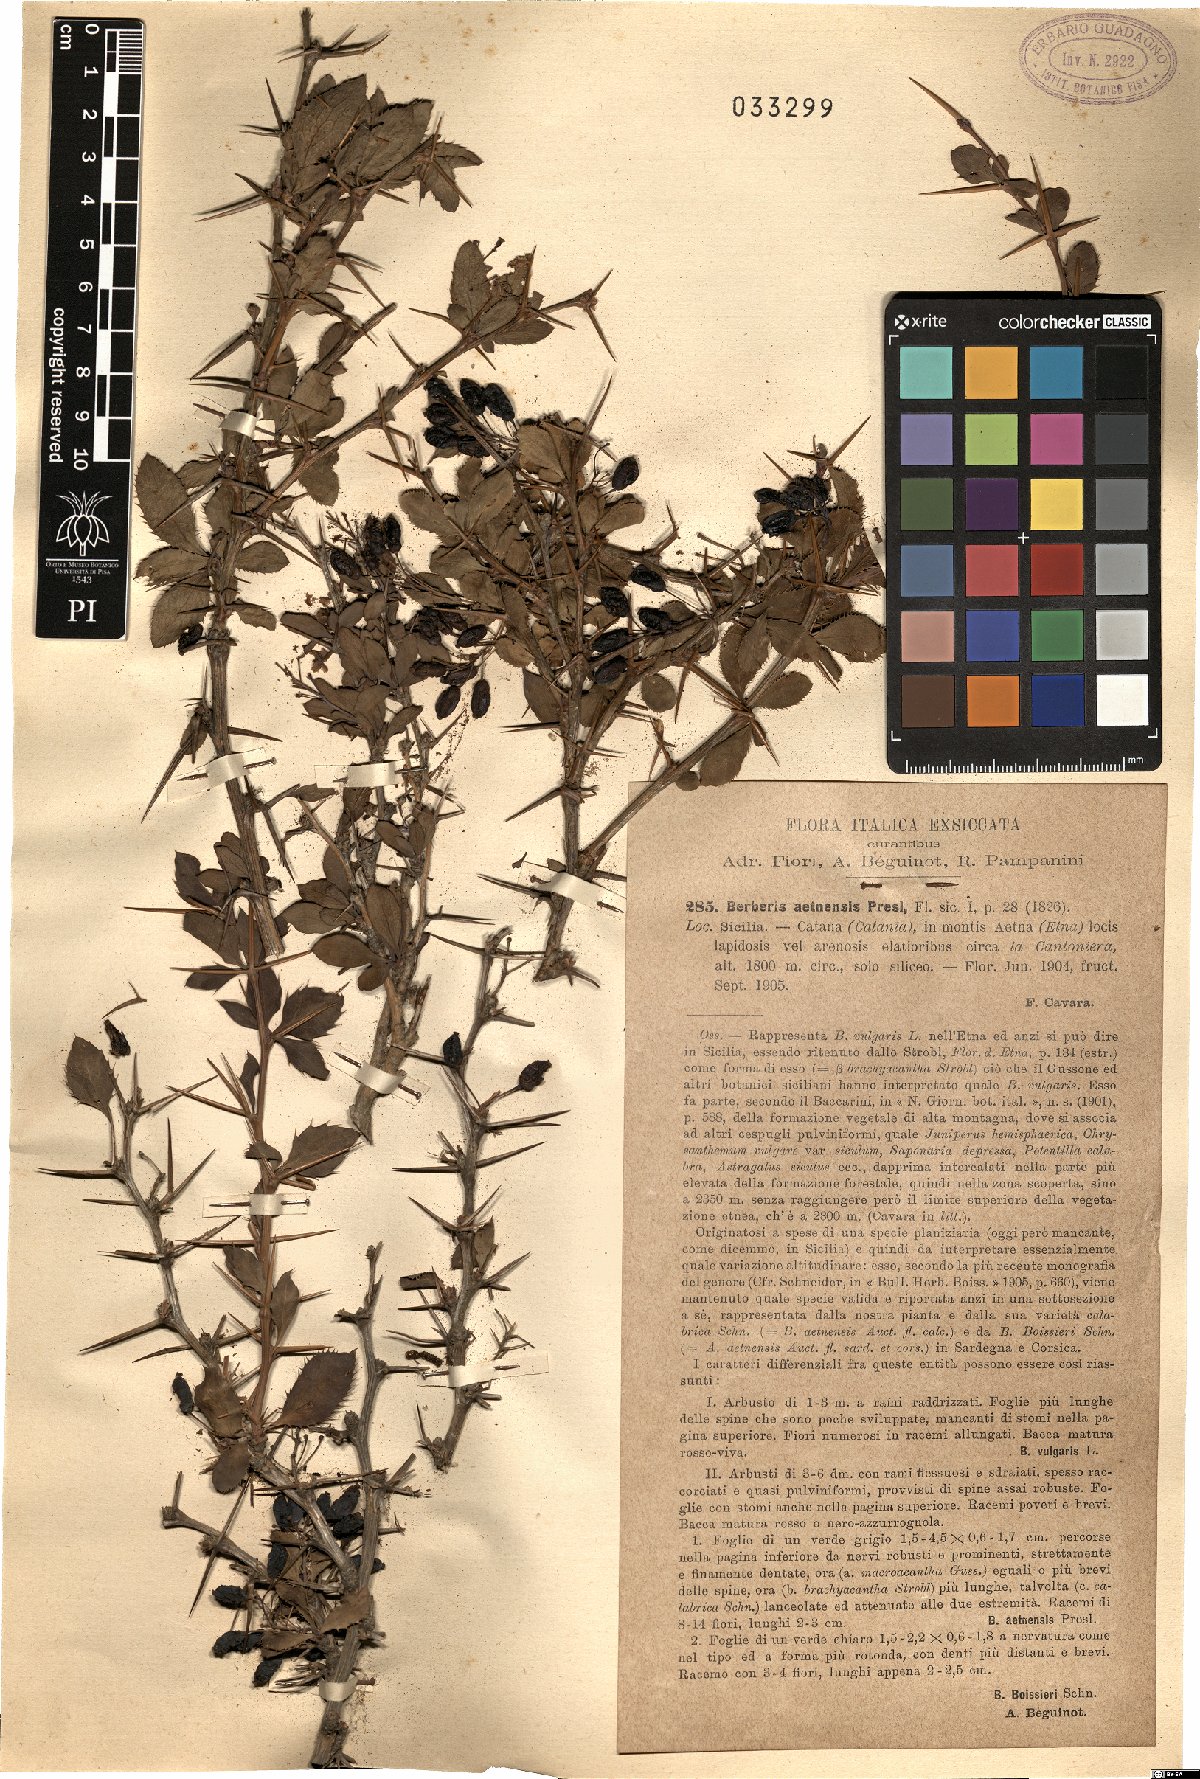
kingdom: Plantae
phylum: Tracheophyta
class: Magnoliopsida
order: Ranunculales
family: Berberidaceae
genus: Berberis
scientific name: Berberis aetnensis
